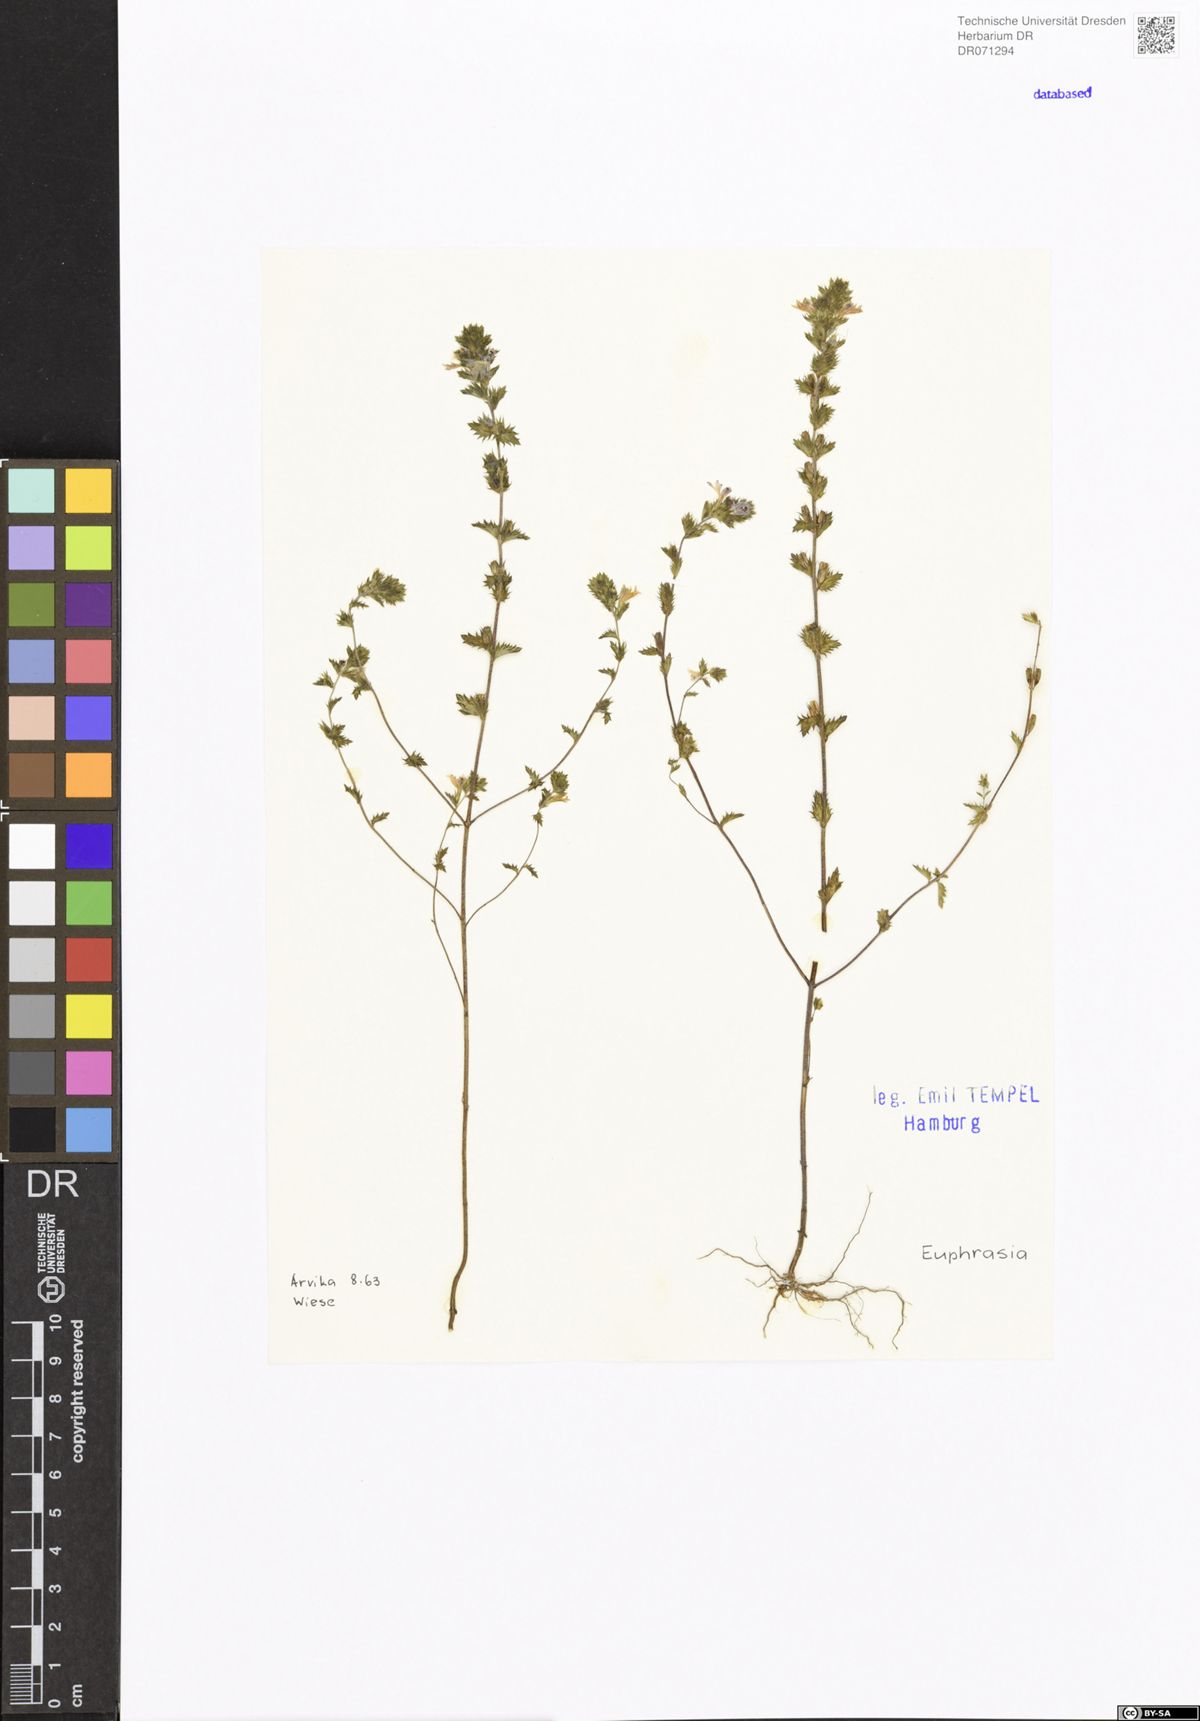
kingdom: Plantae
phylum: Tracheophyta
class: Magnoliopsida
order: Lamiales
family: Orobanchaceae
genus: Euphrasia
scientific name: Euphrasia
